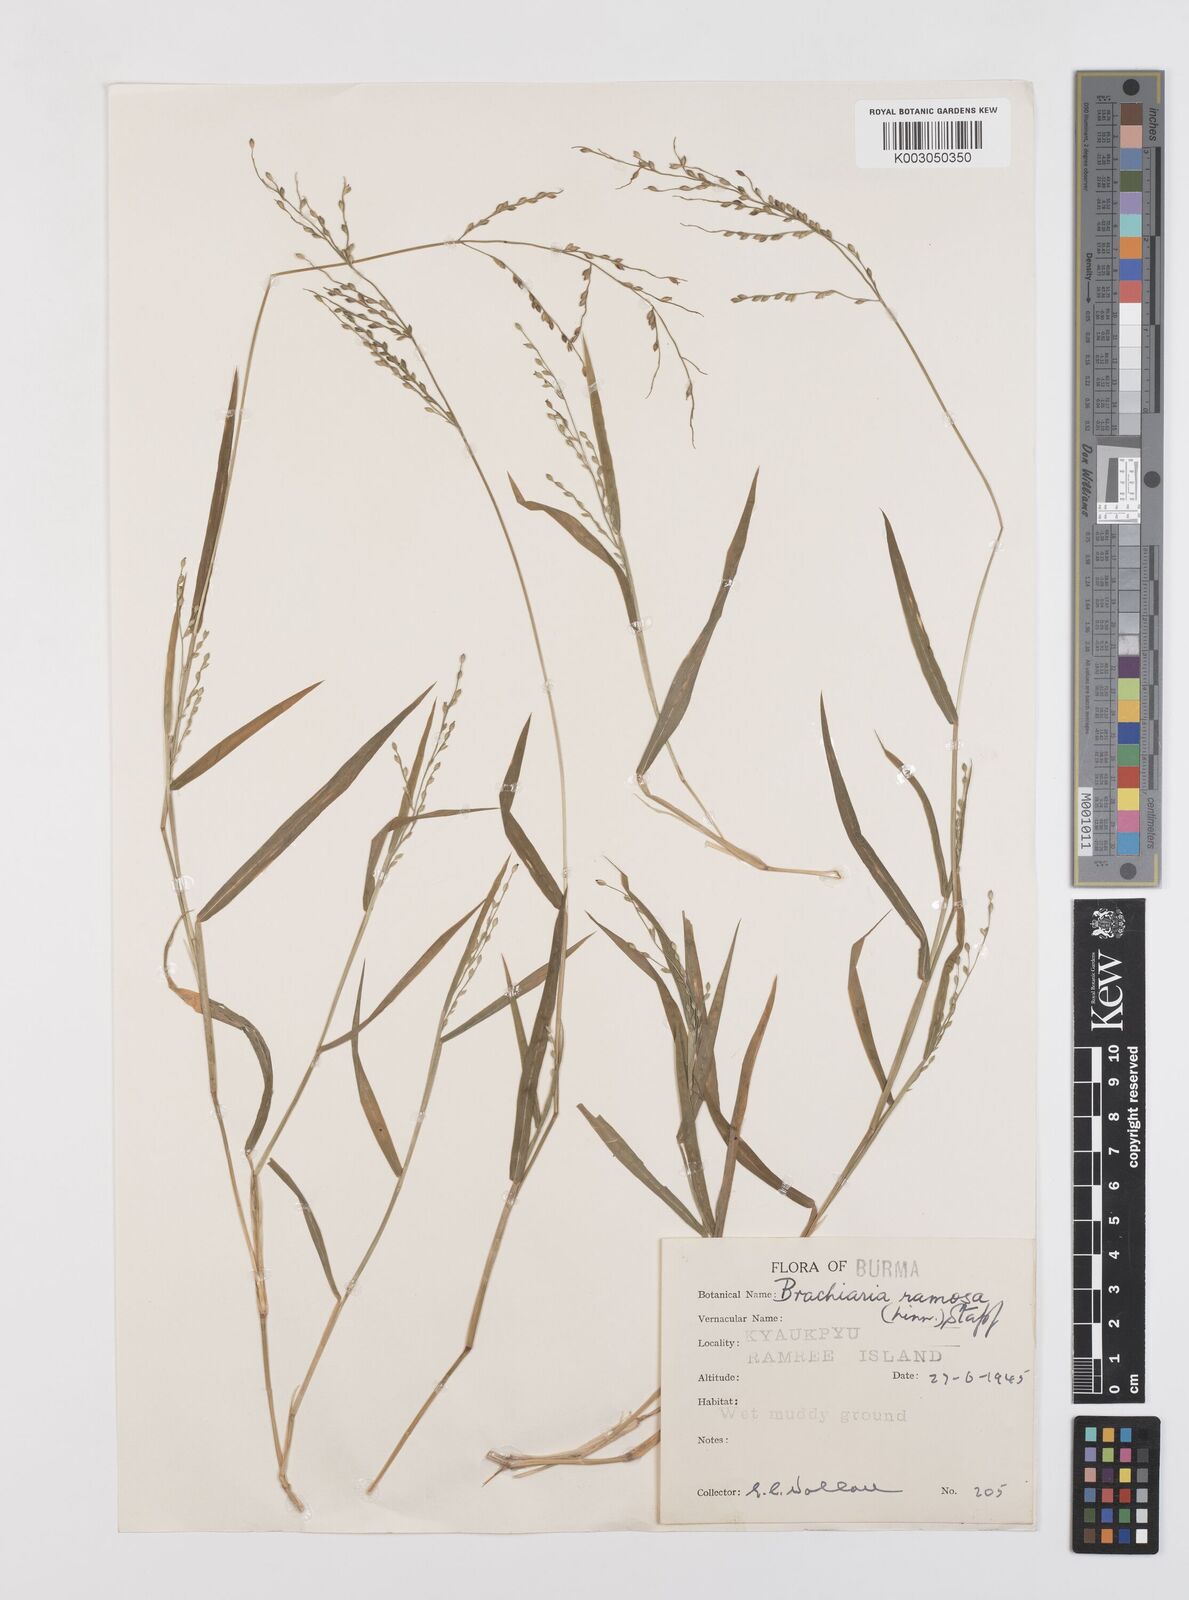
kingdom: Plantae
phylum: Tracheophyta
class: Liliopsida
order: Poales
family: Poaceae
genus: Urochloa
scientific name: Urochloa ramosa
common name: Browntop millet
